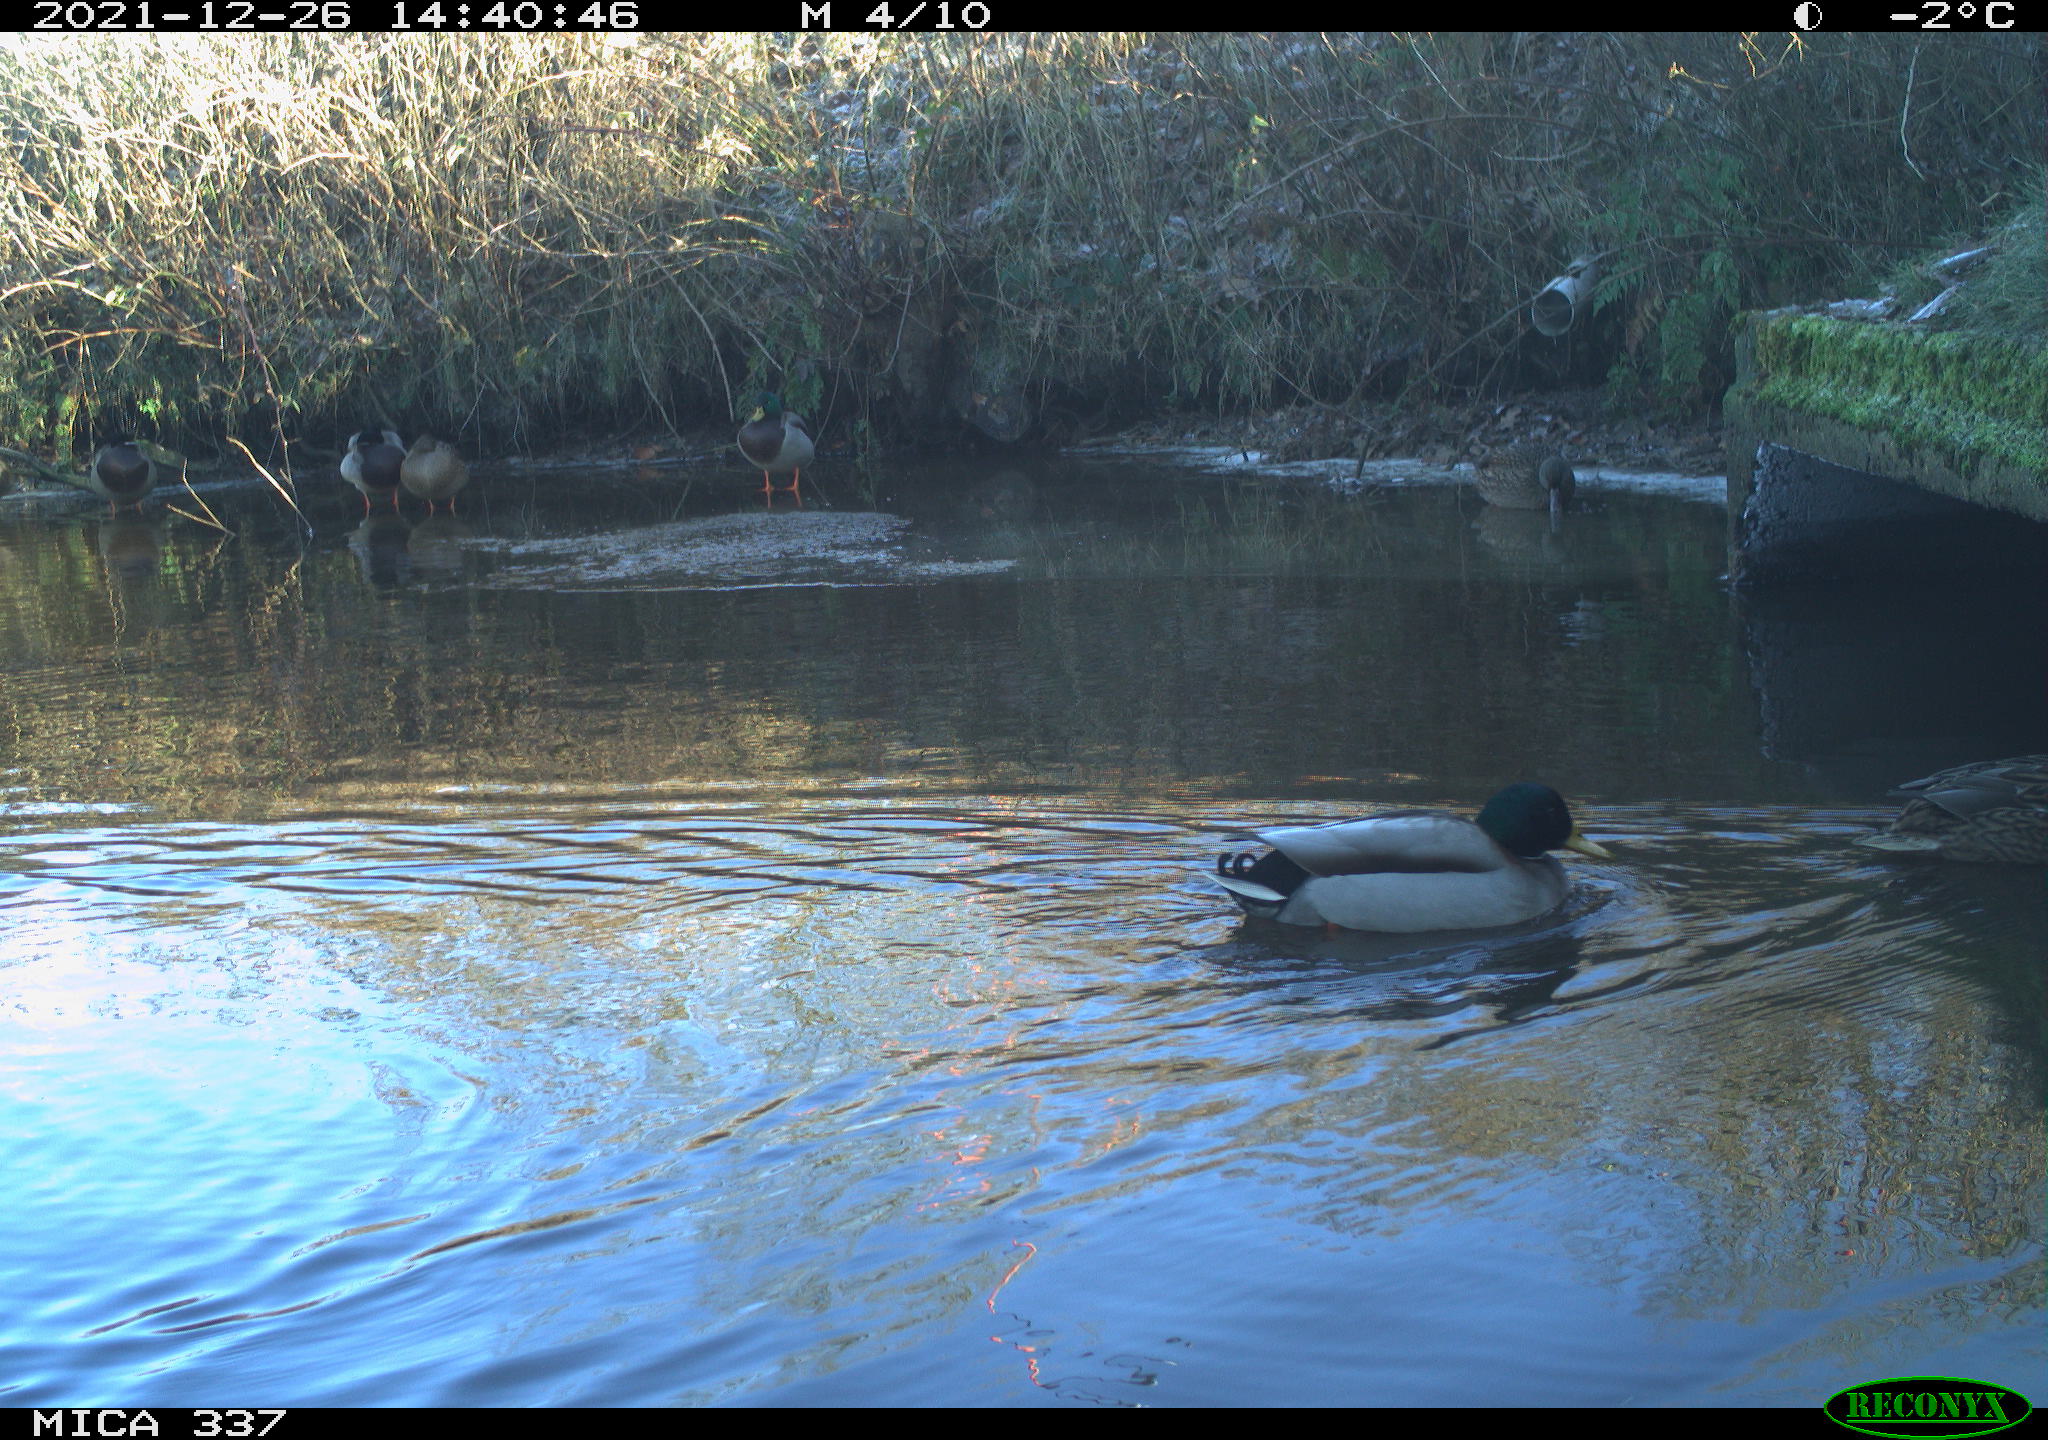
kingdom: Animalia
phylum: Chordata
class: Aves
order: Anseriformes
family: Anatidae
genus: Anas
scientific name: Anas platyrhynchos
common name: Mallard
